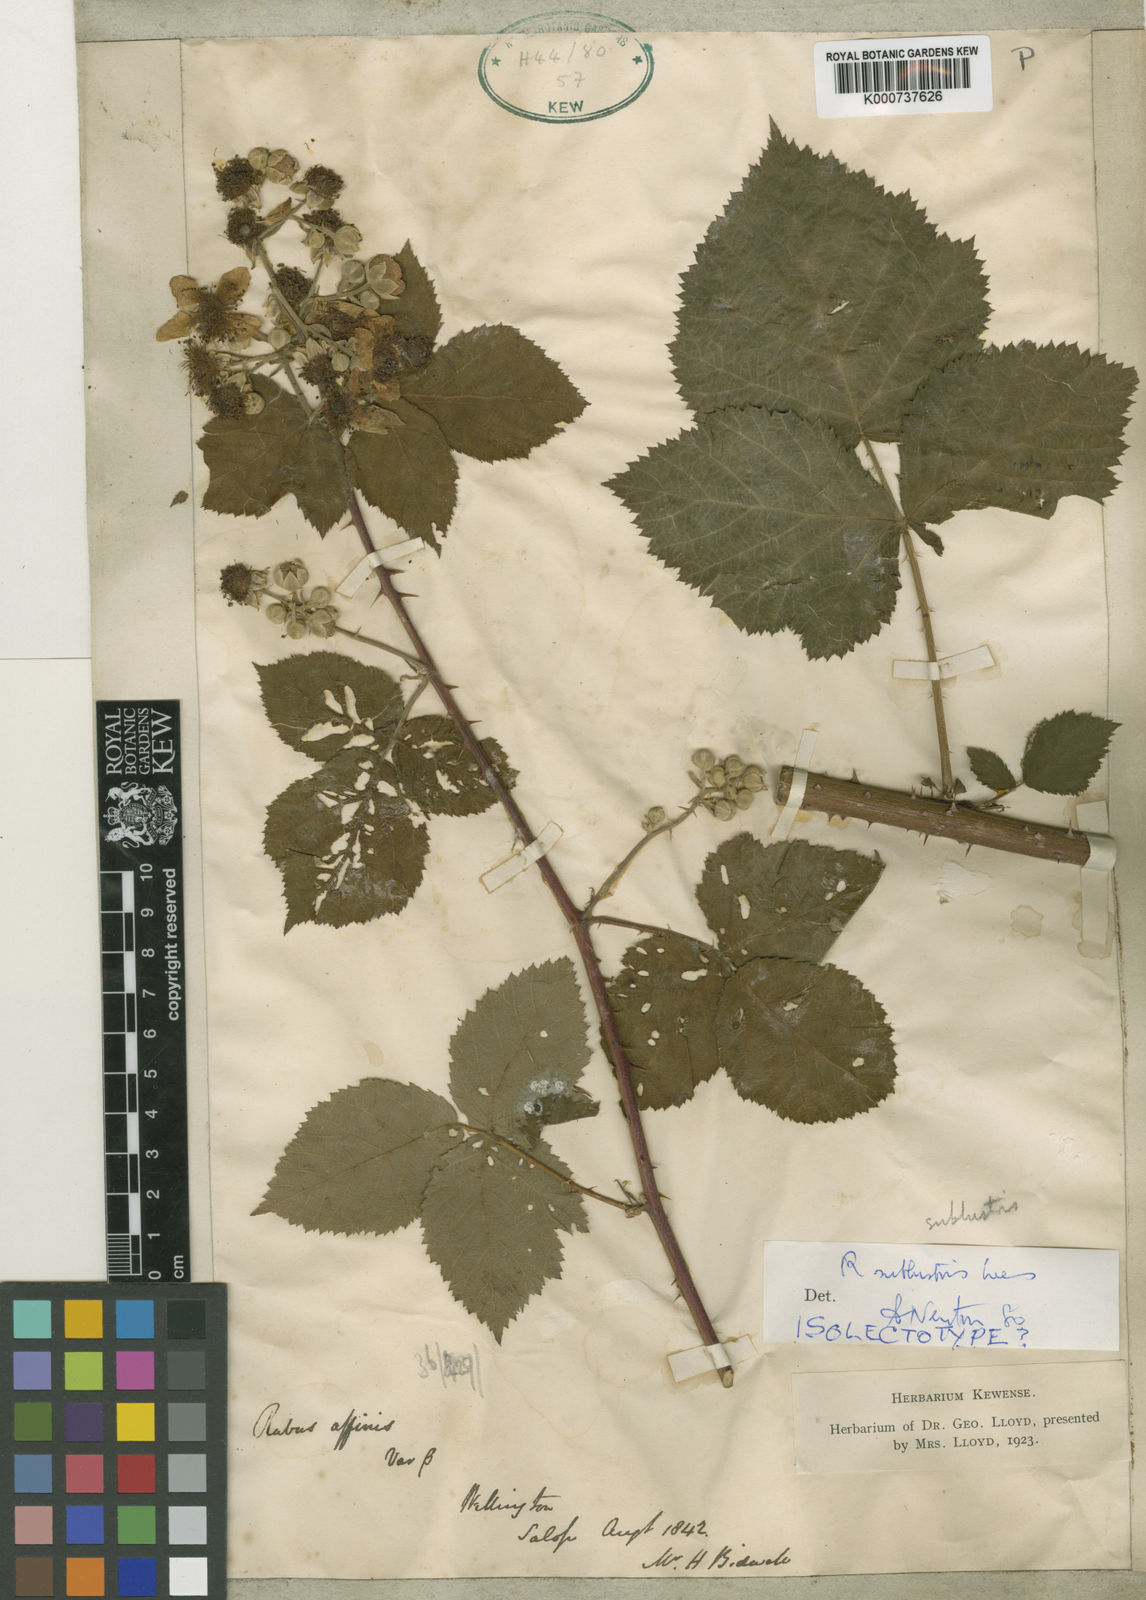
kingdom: Plantae
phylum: Tracheophyta
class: Magnoliopsida
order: Rosales
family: Rosaceae
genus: Rubus
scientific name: Rubus pruinosus
